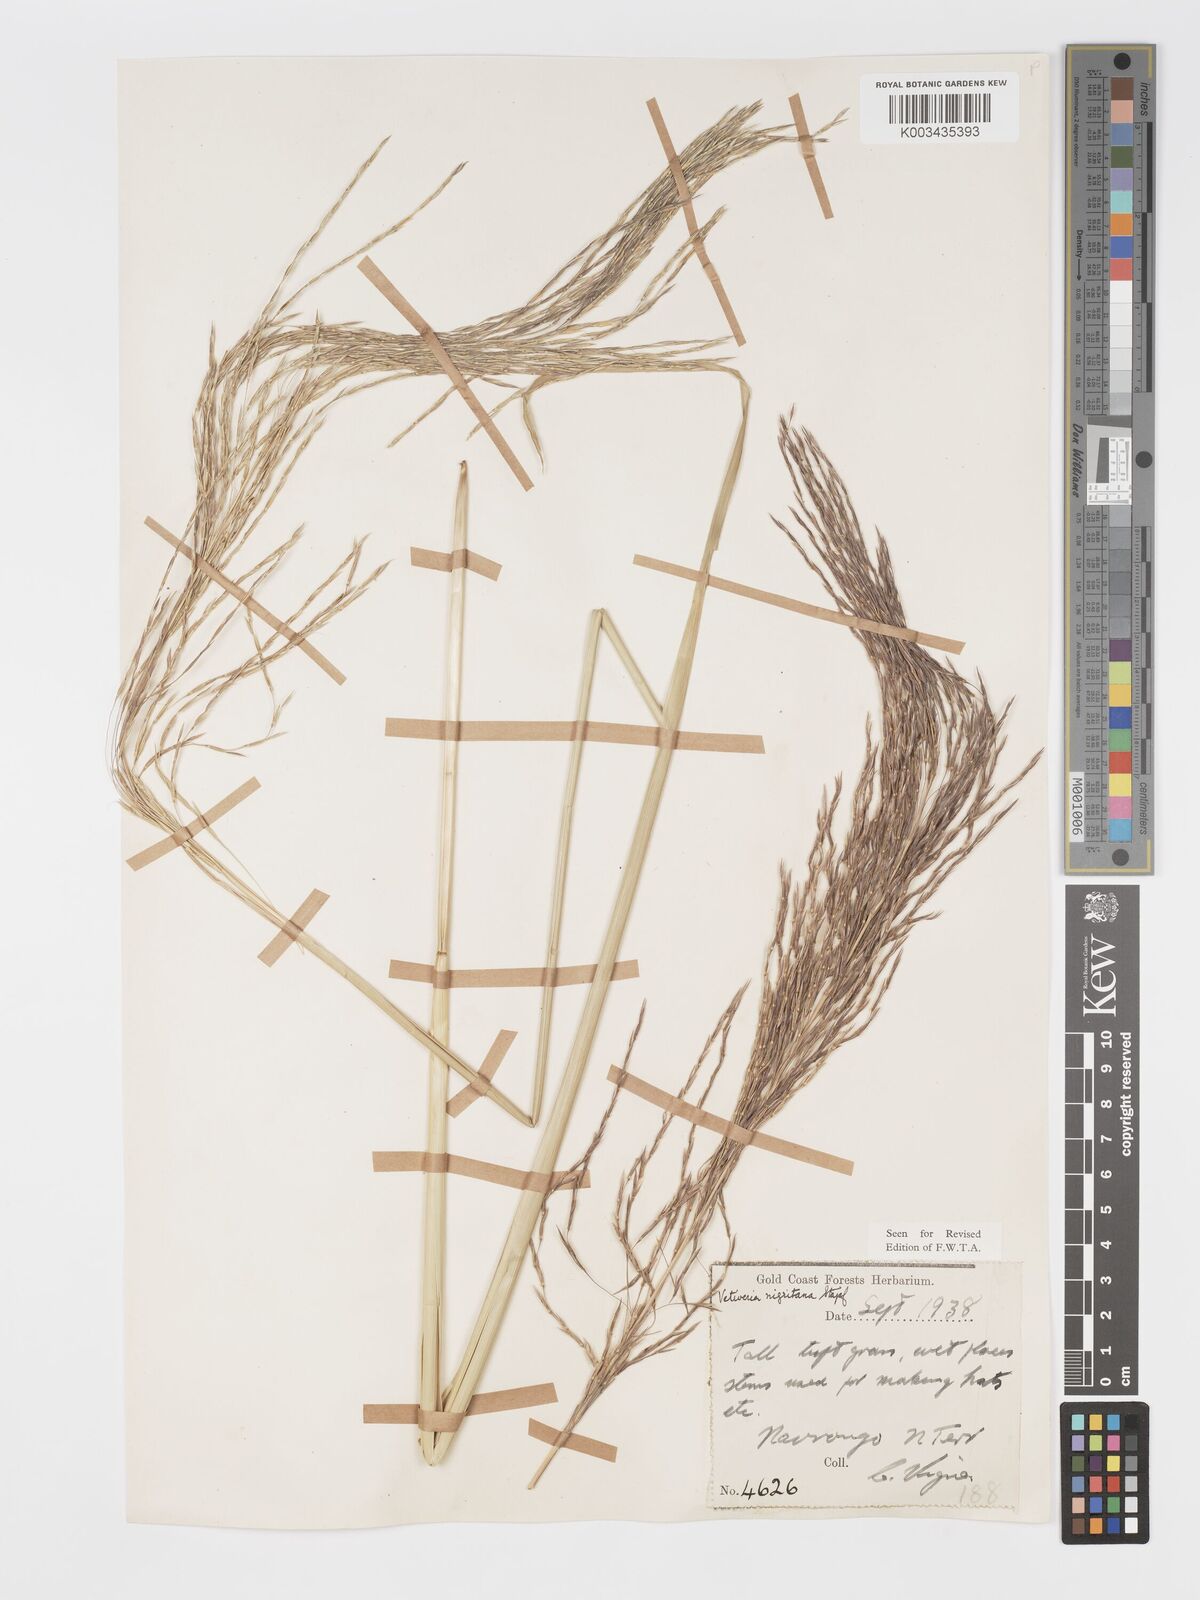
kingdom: Plantae
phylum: Tracheophyta
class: Liliopsida
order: Poales
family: Poaceae
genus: Chrysopogon
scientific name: Chrysopogon nigritanus
